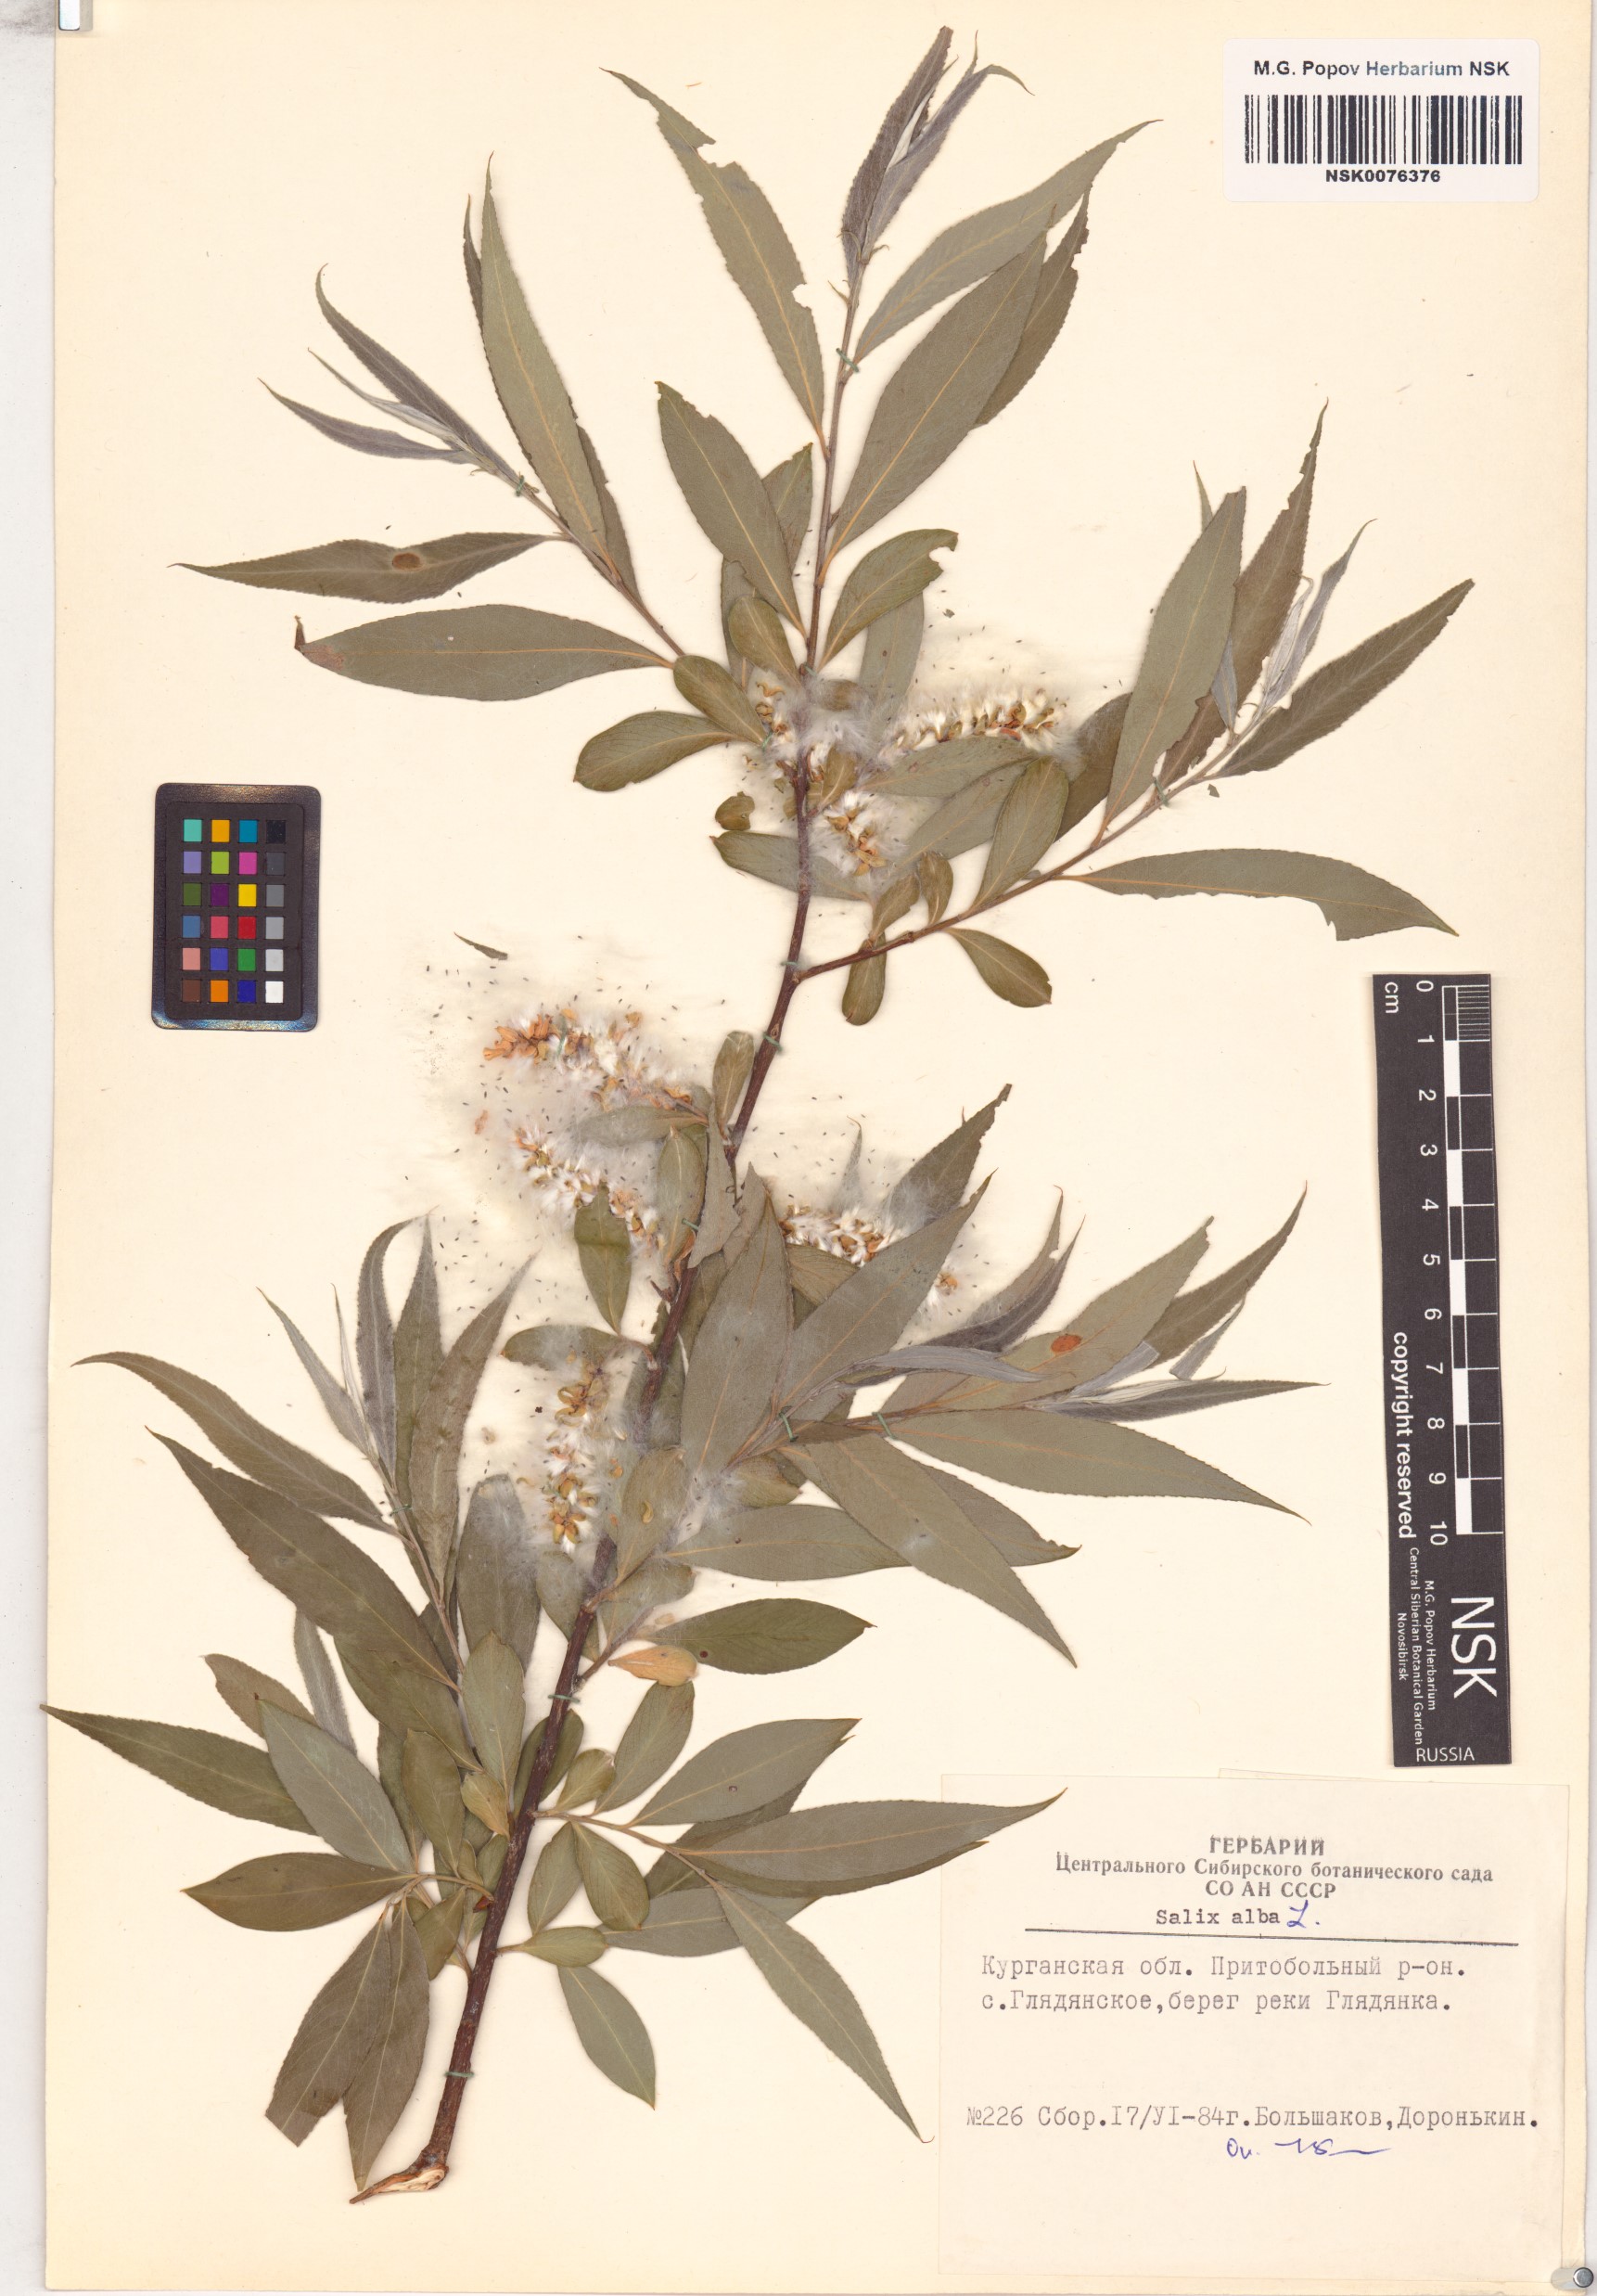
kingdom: Plantae
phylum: Tracheophyta
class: Magnoliopsida
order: Malpighiales
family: Salicaceae
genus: Salix
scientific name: Salix alba
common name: White willow
